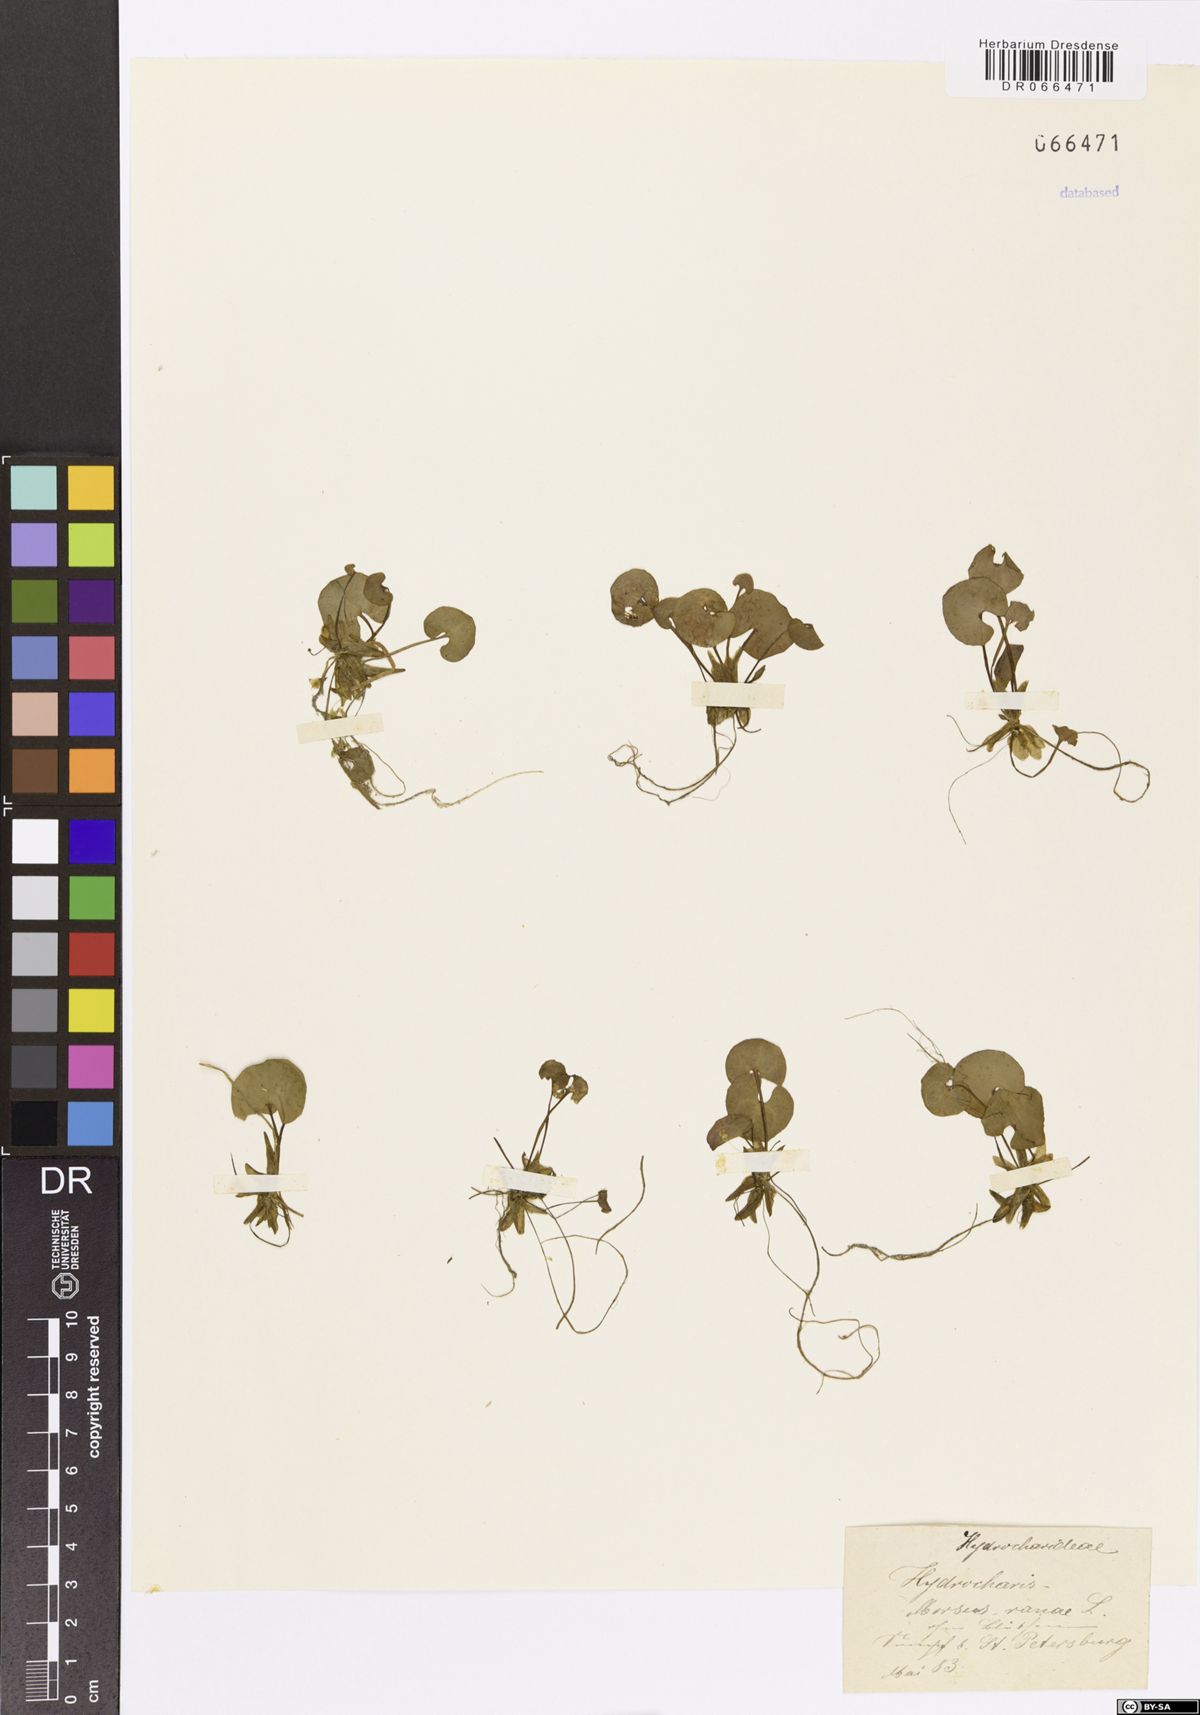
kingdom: Plantae
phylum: Tracheophyta
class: Liliopsida
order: Alismatales
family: Hydrocharitaceae
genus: Hydrocharis
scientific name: Hydrocharis morsus-ranae
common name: Frogbit
